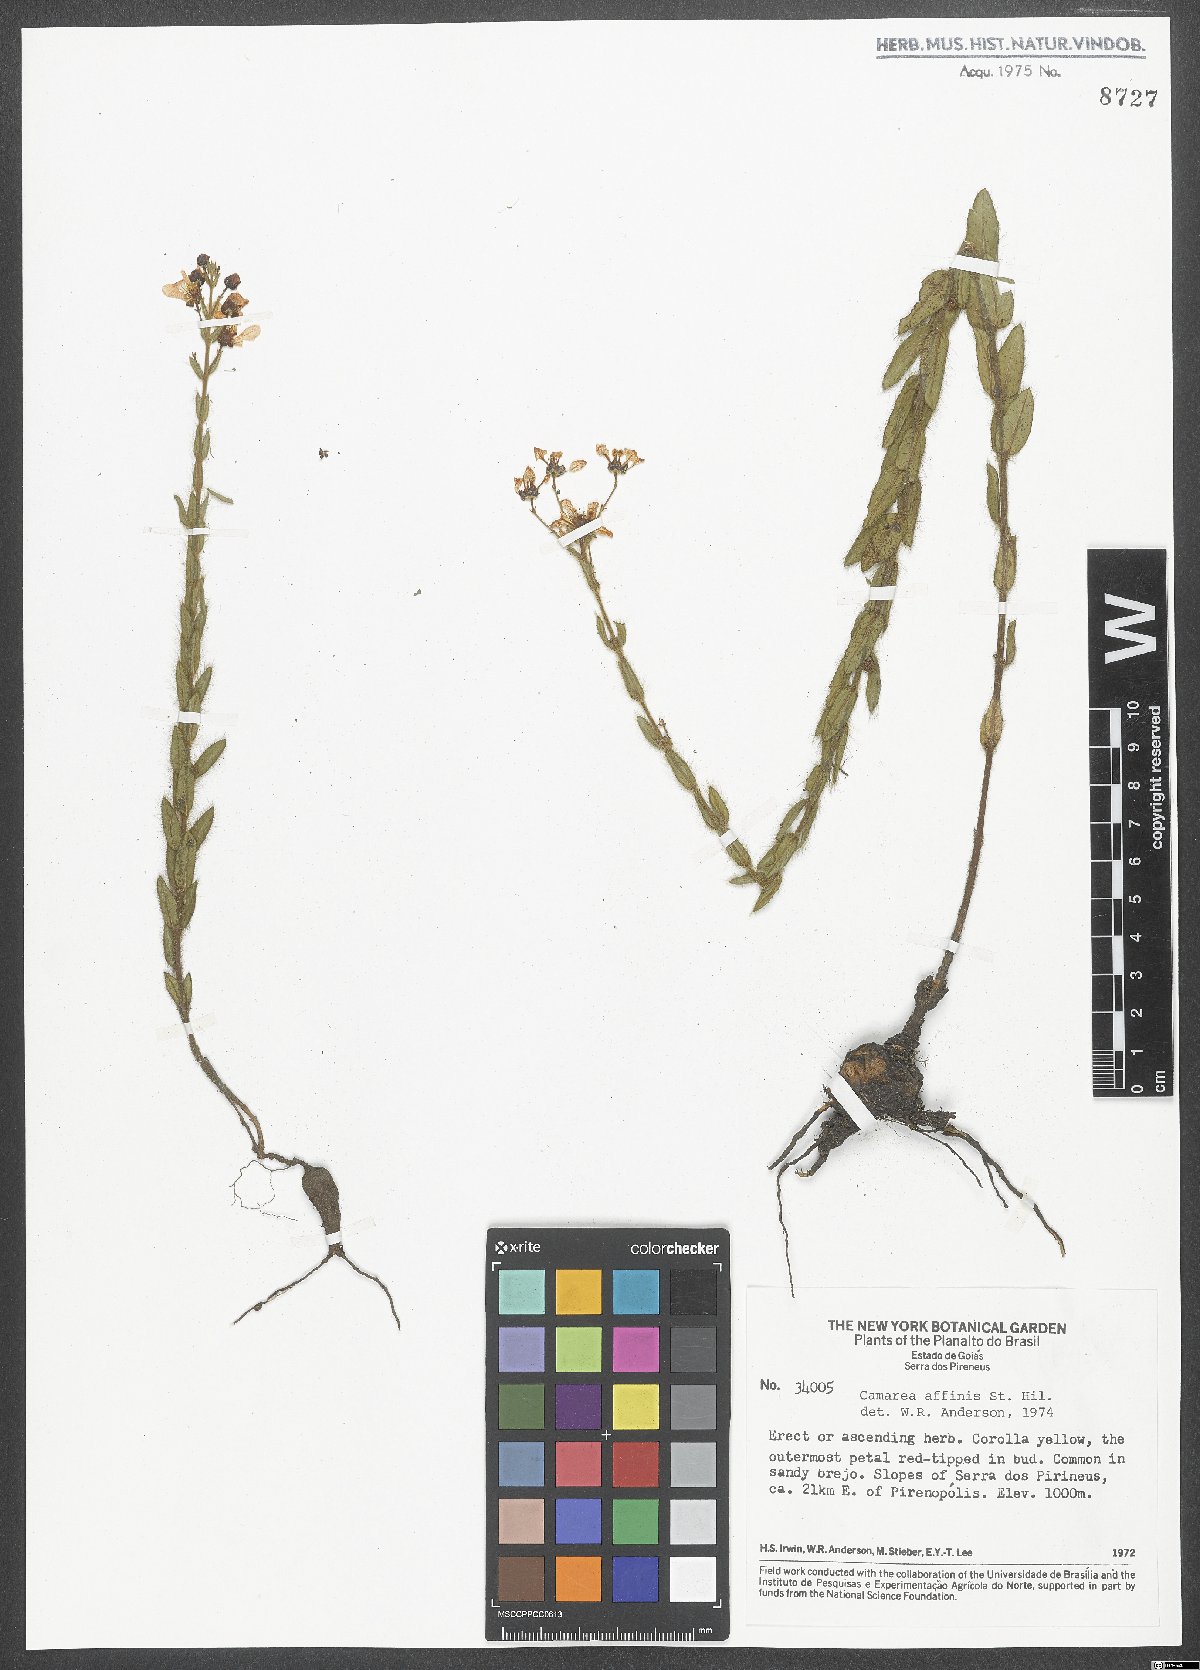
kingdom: Plantae
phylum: Tracheophyta
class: Magnoliopsida
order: Malpighiales
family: Malpighiaceae
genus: Camarea
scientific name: Camarea affinis
